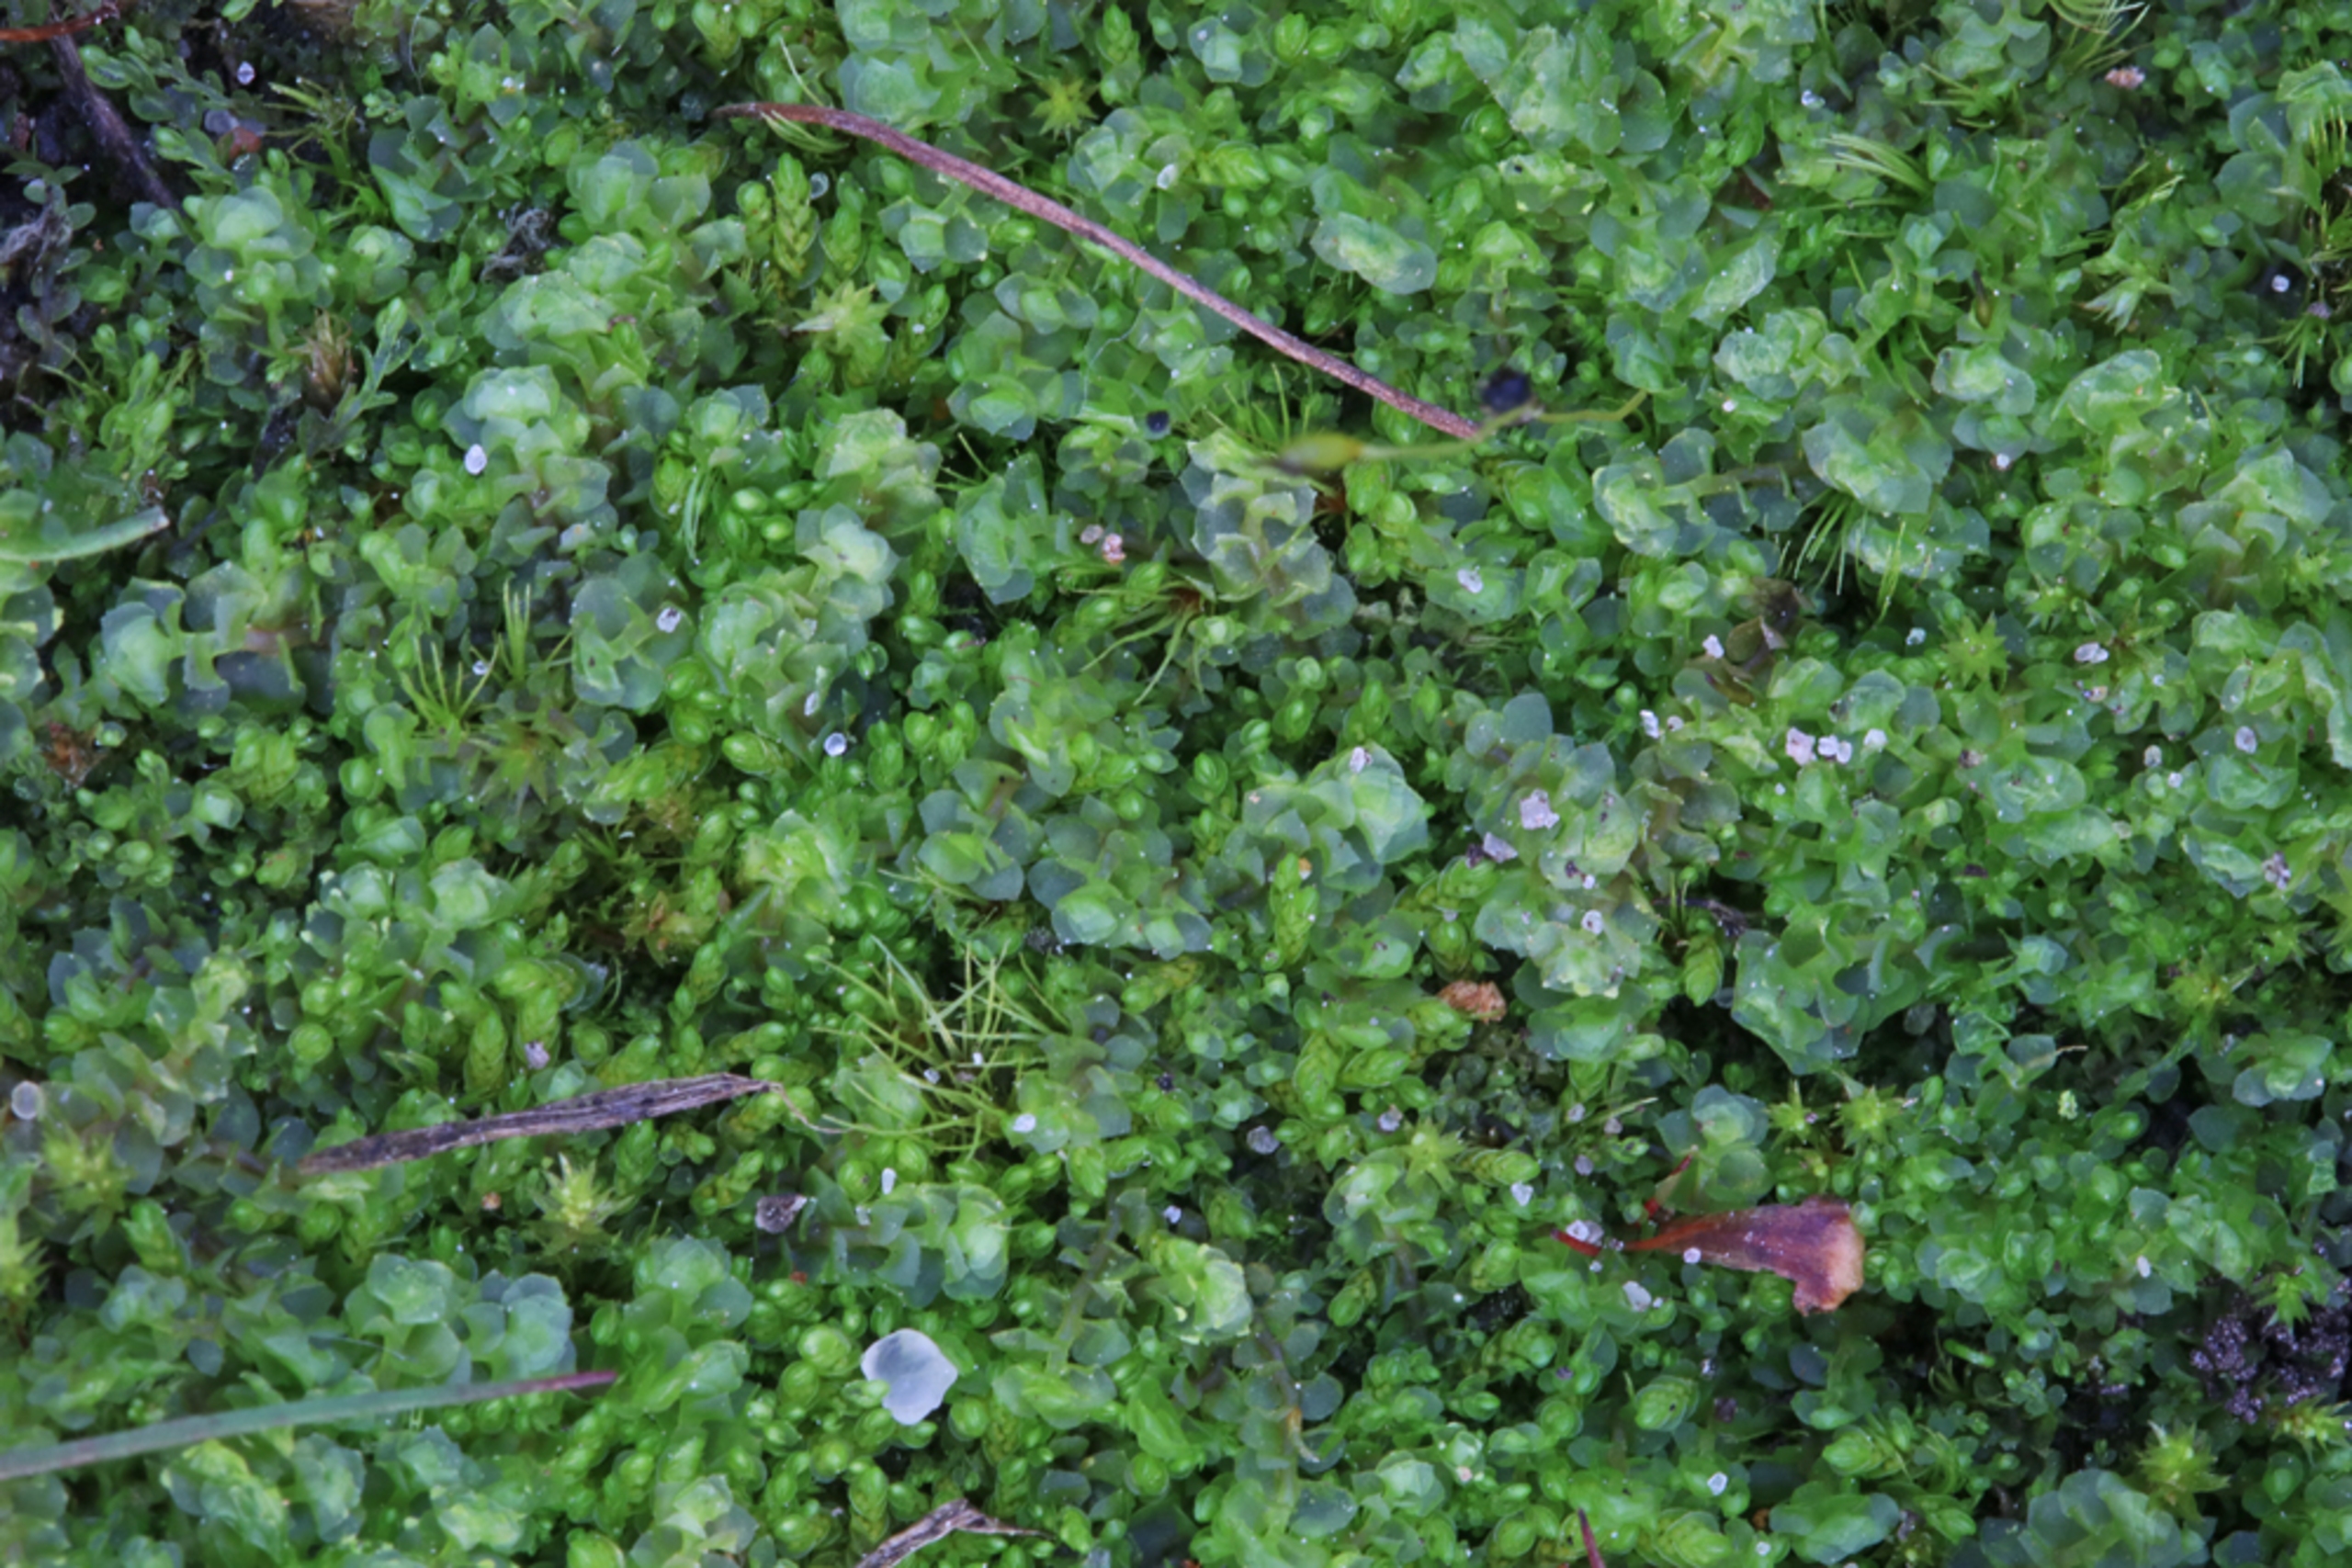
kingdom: Plantae
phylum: Marchantiophyta
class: Jungermanniopsida
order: Jungermanniales
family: Scapaniaceae
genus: Scapania
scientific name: Scapania irrigua
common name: Kær-tveblad
